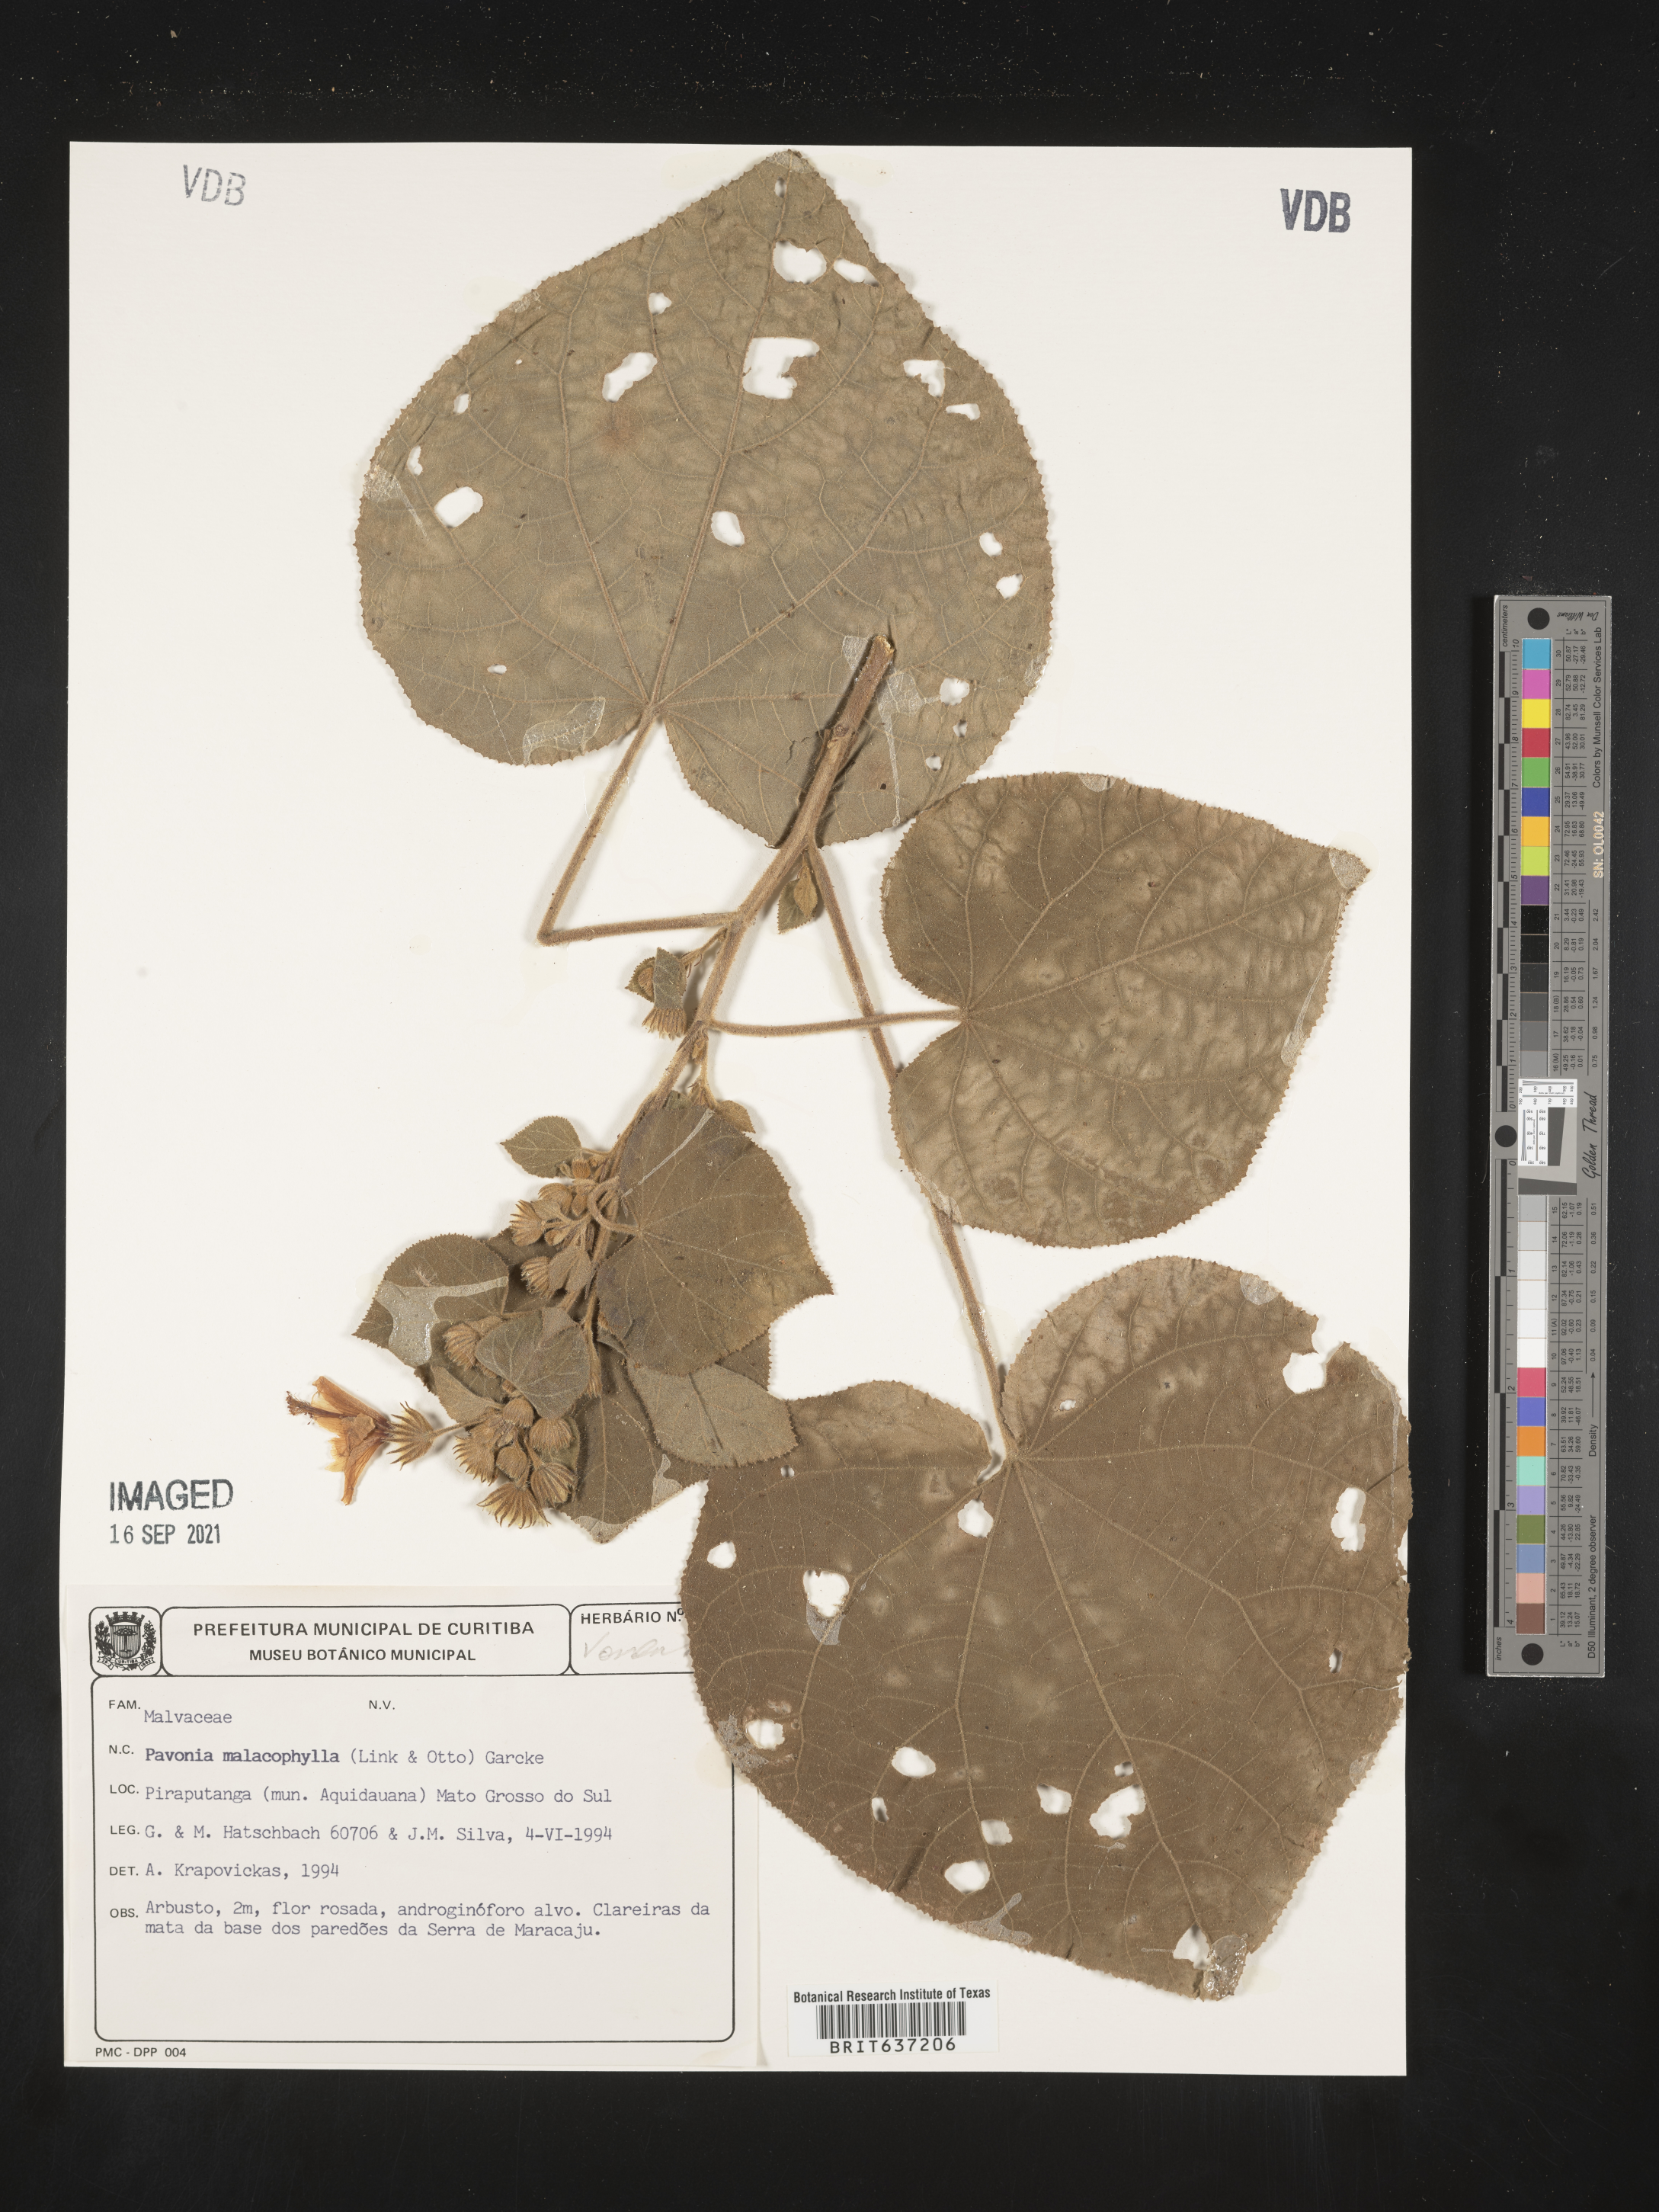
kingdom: Plantae
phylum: Tracheophyta
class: Magnoliopsida
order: Malvales
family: Malvaceae
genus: Pavonia
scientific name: Pavonia
